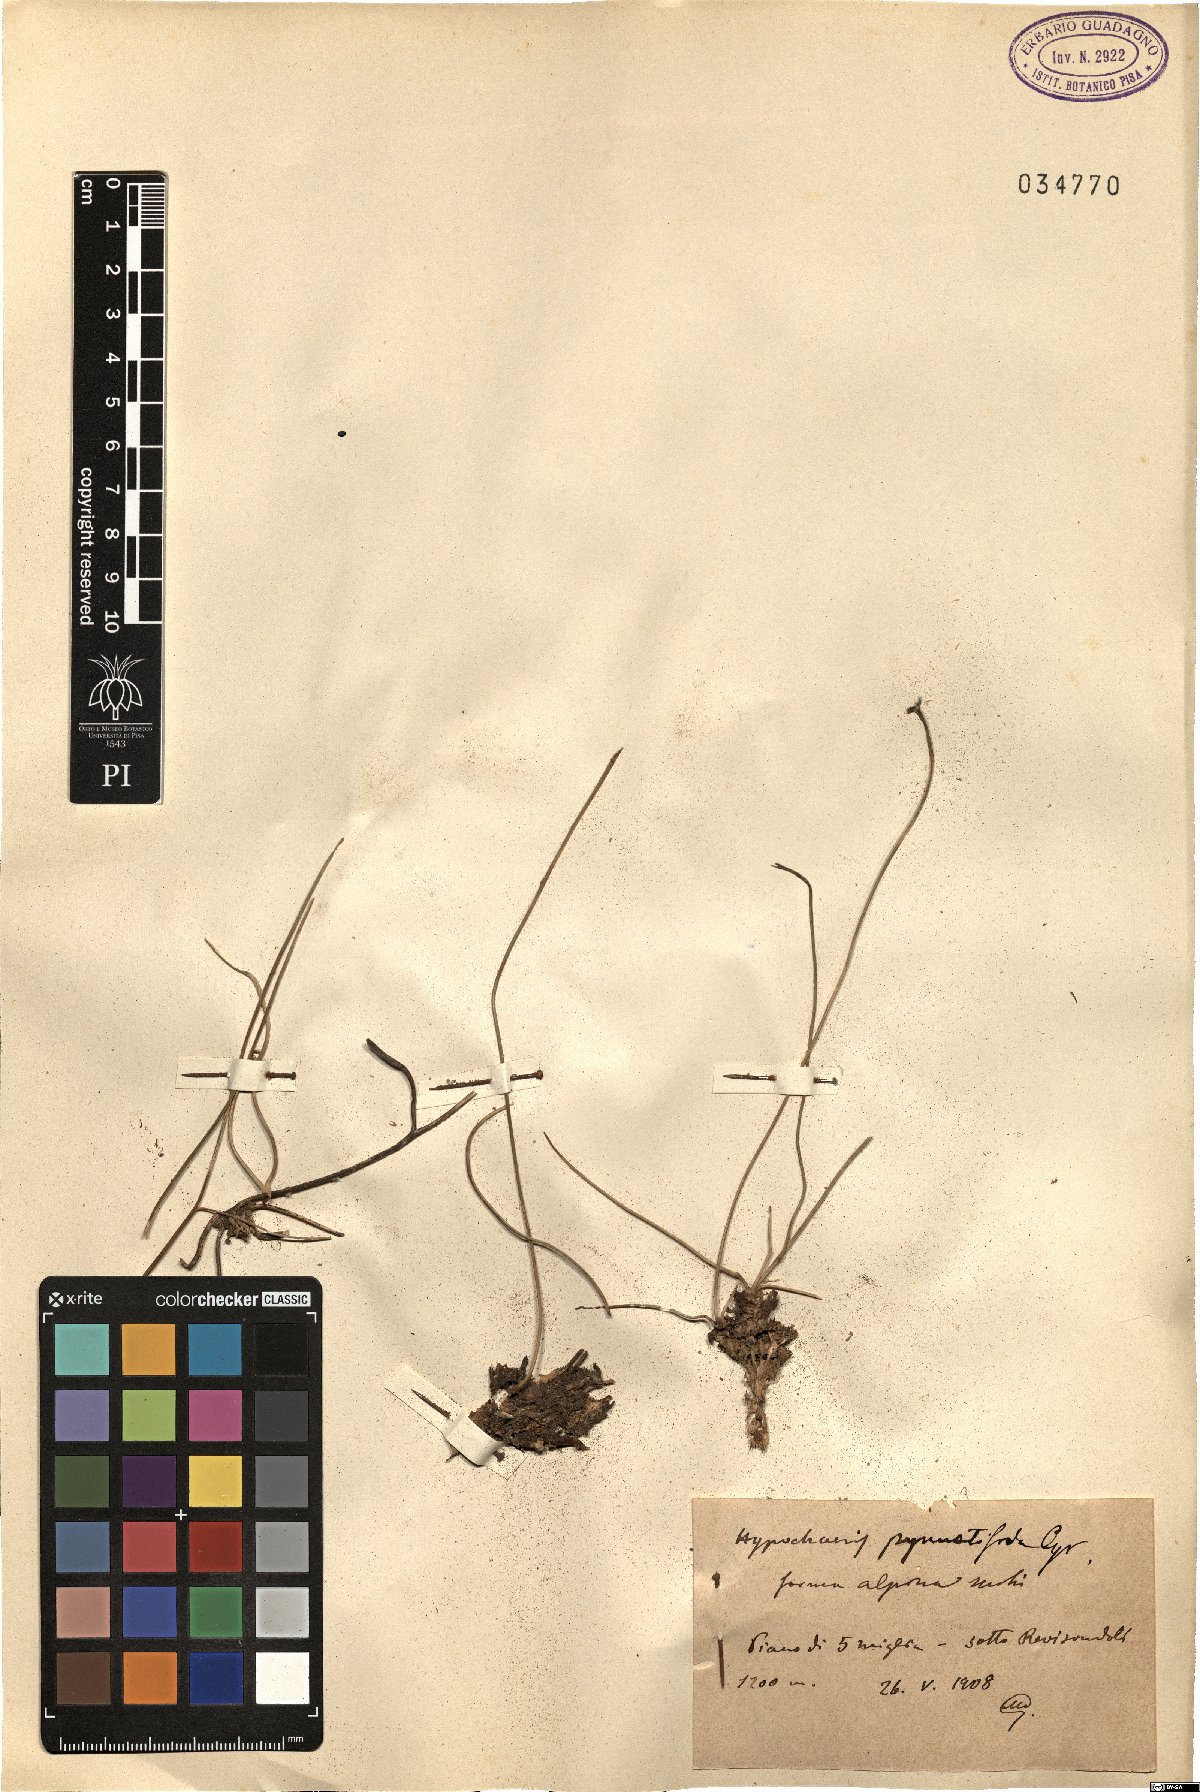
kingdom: Plantae
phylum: Tracheophyta
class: Magnoliopsida
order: Asterales
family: Asteraceae
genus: Hypochaeris
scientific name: Hypochaeris
